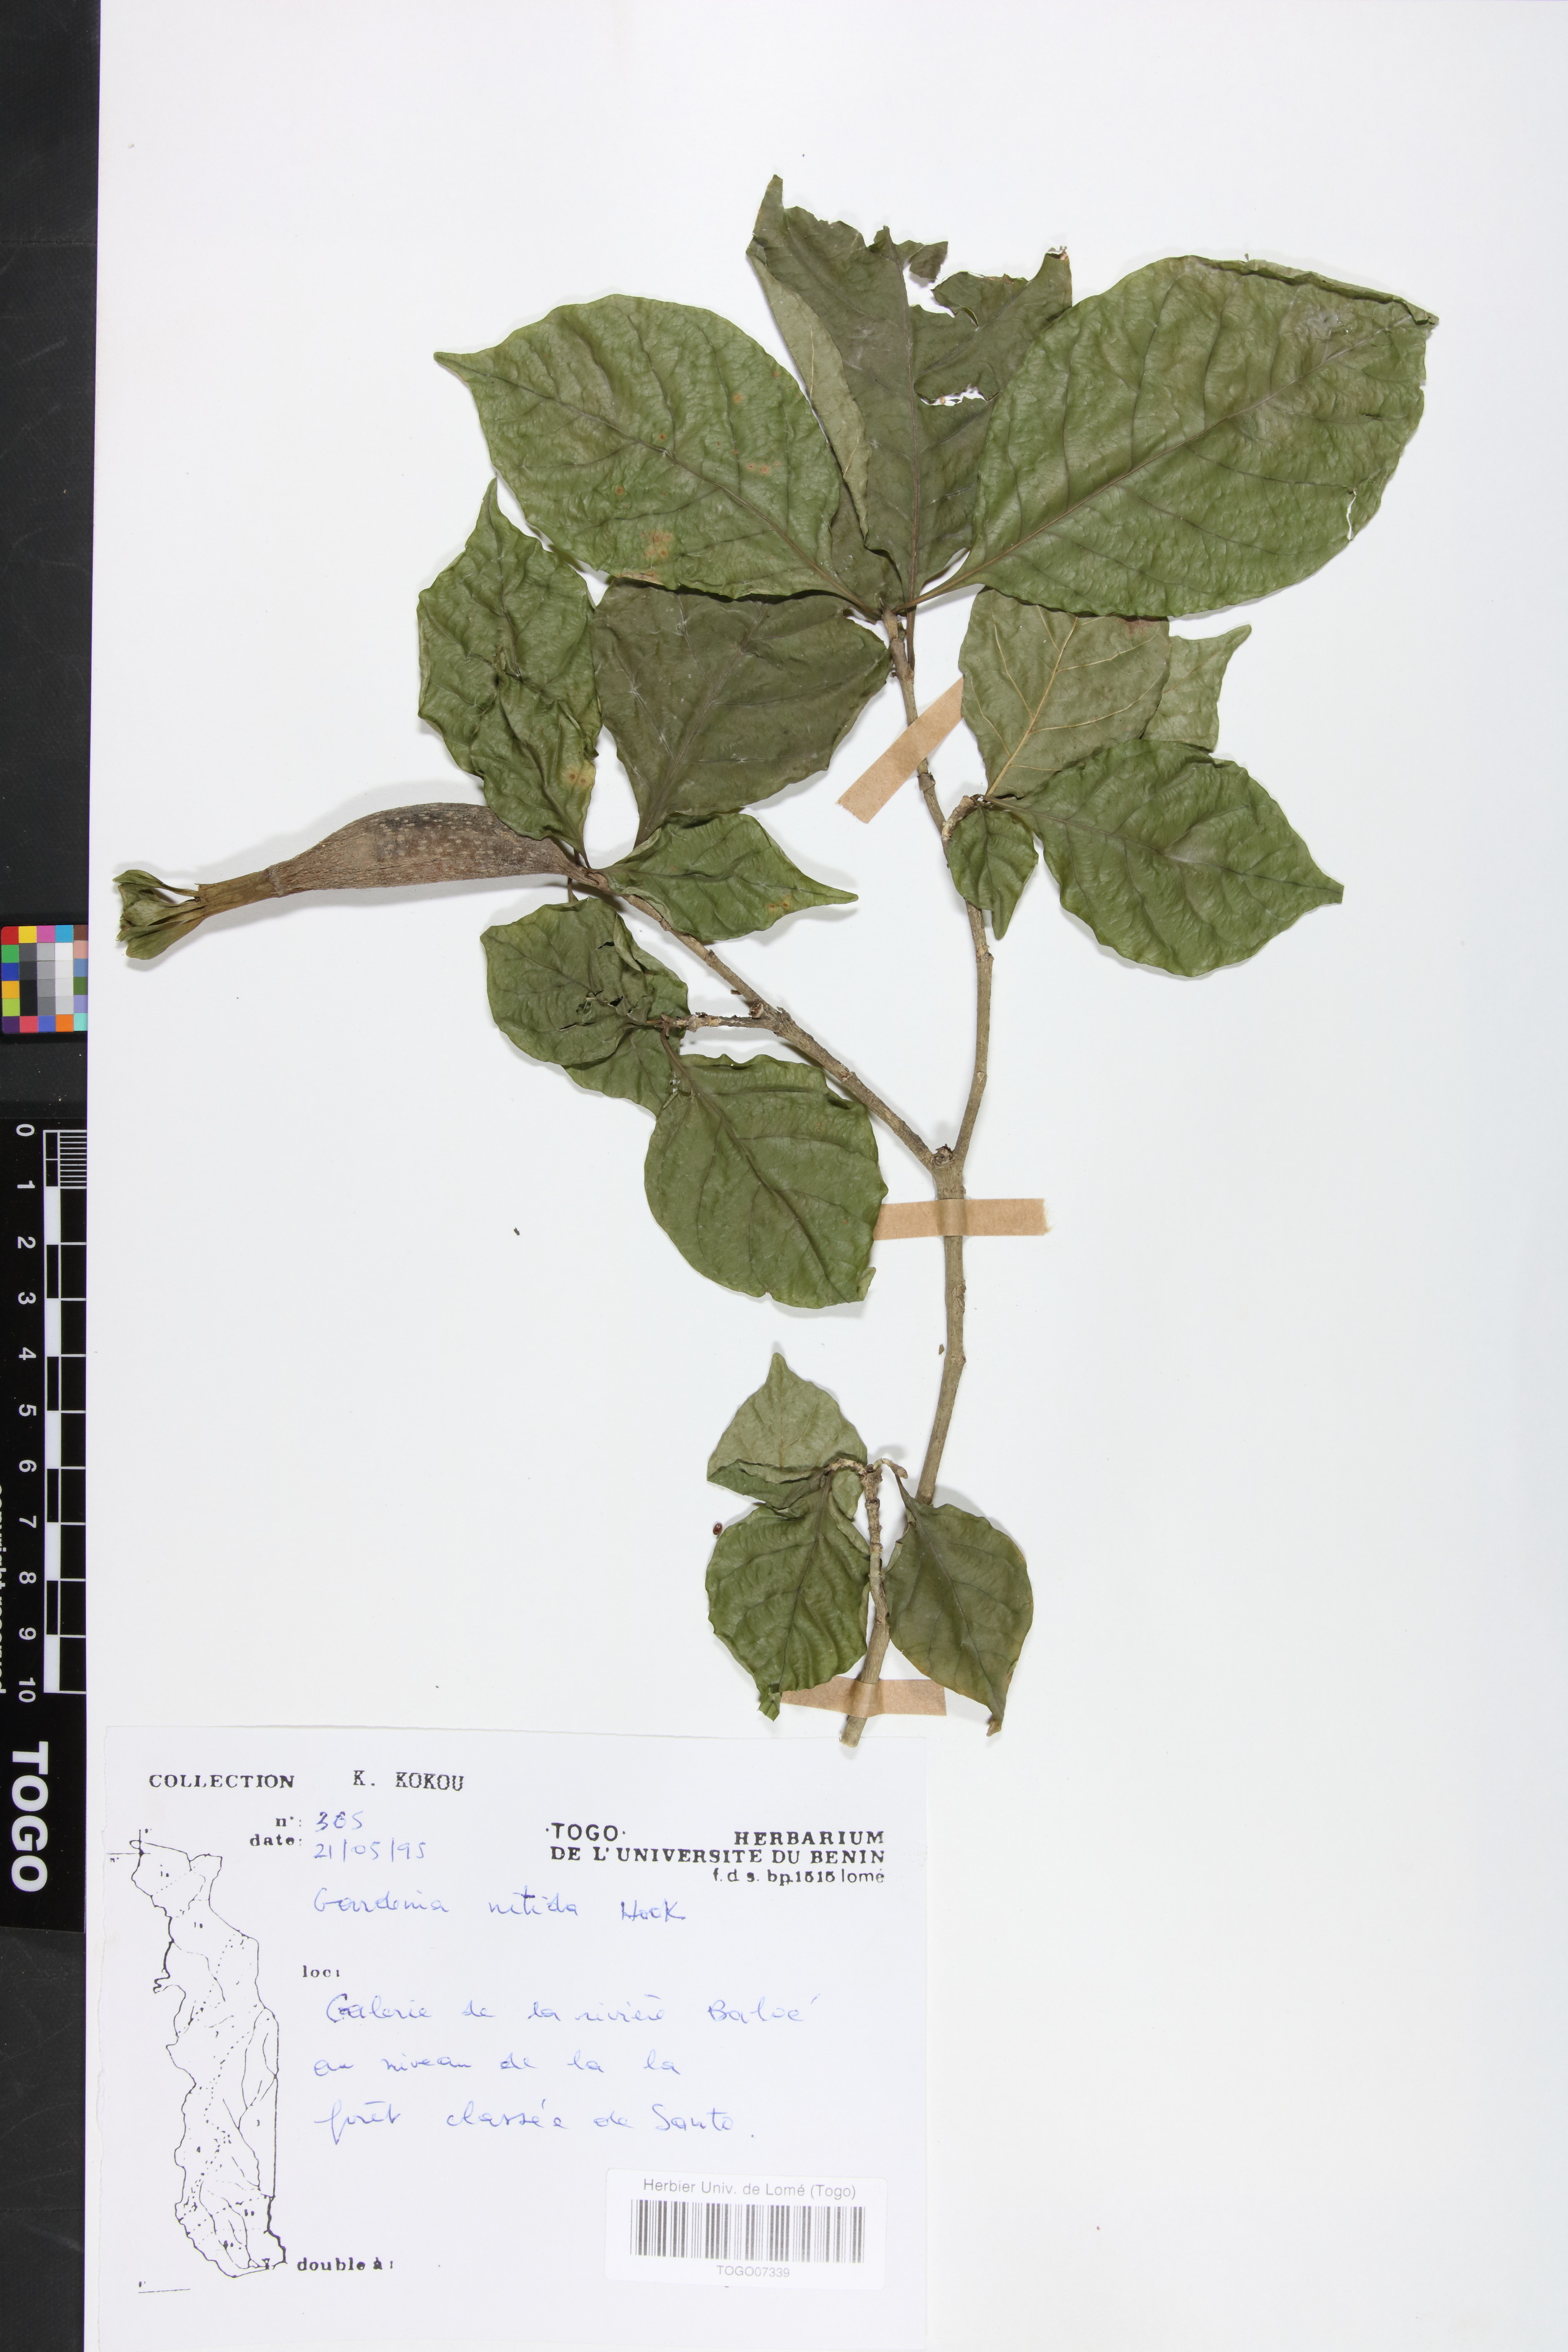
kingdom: Plantae
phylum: Tracheophyta
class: Magnoliopsida
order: Gentianales
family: Rubiaceae
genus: Gardenia
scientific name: Gardenia nitida
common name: Glossy-leaved gardenia
